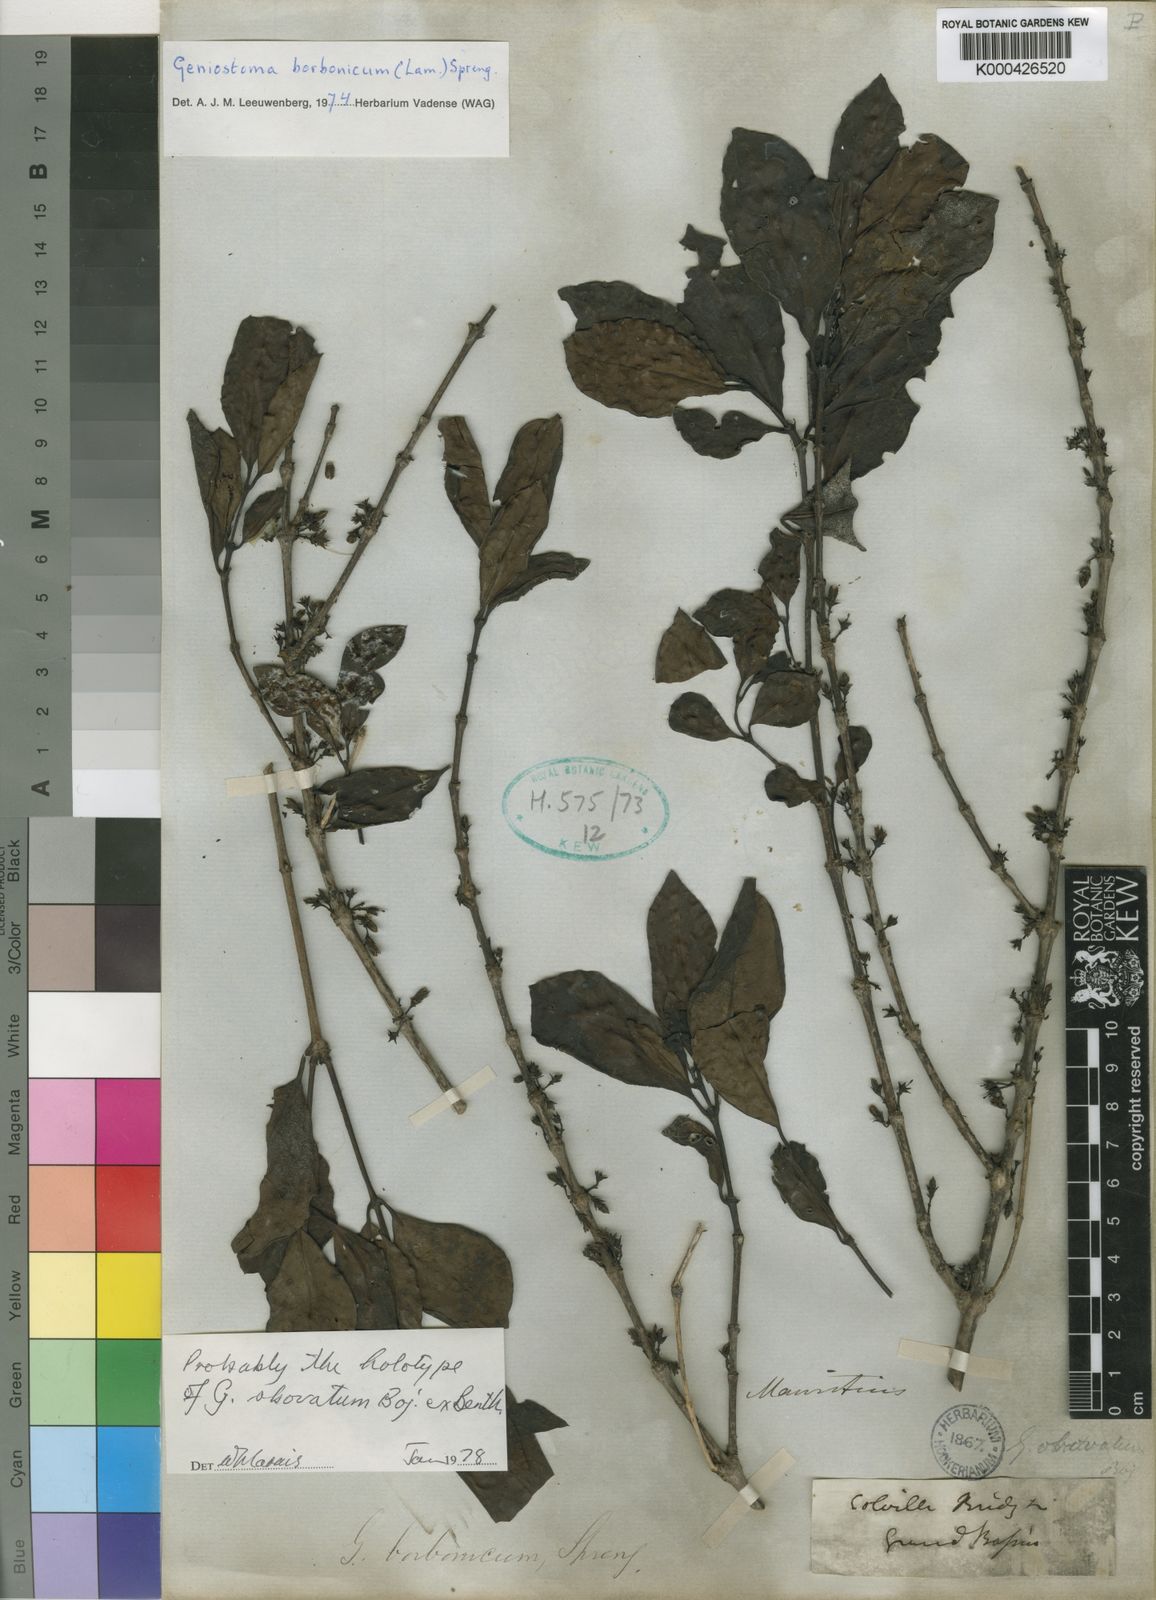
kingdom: Plantae
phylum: Tracheophyta
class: Magnoliopsida
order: Gentianales
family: Loganiaceae
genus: Geniostoma
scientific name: Geniostoma borbonicum
